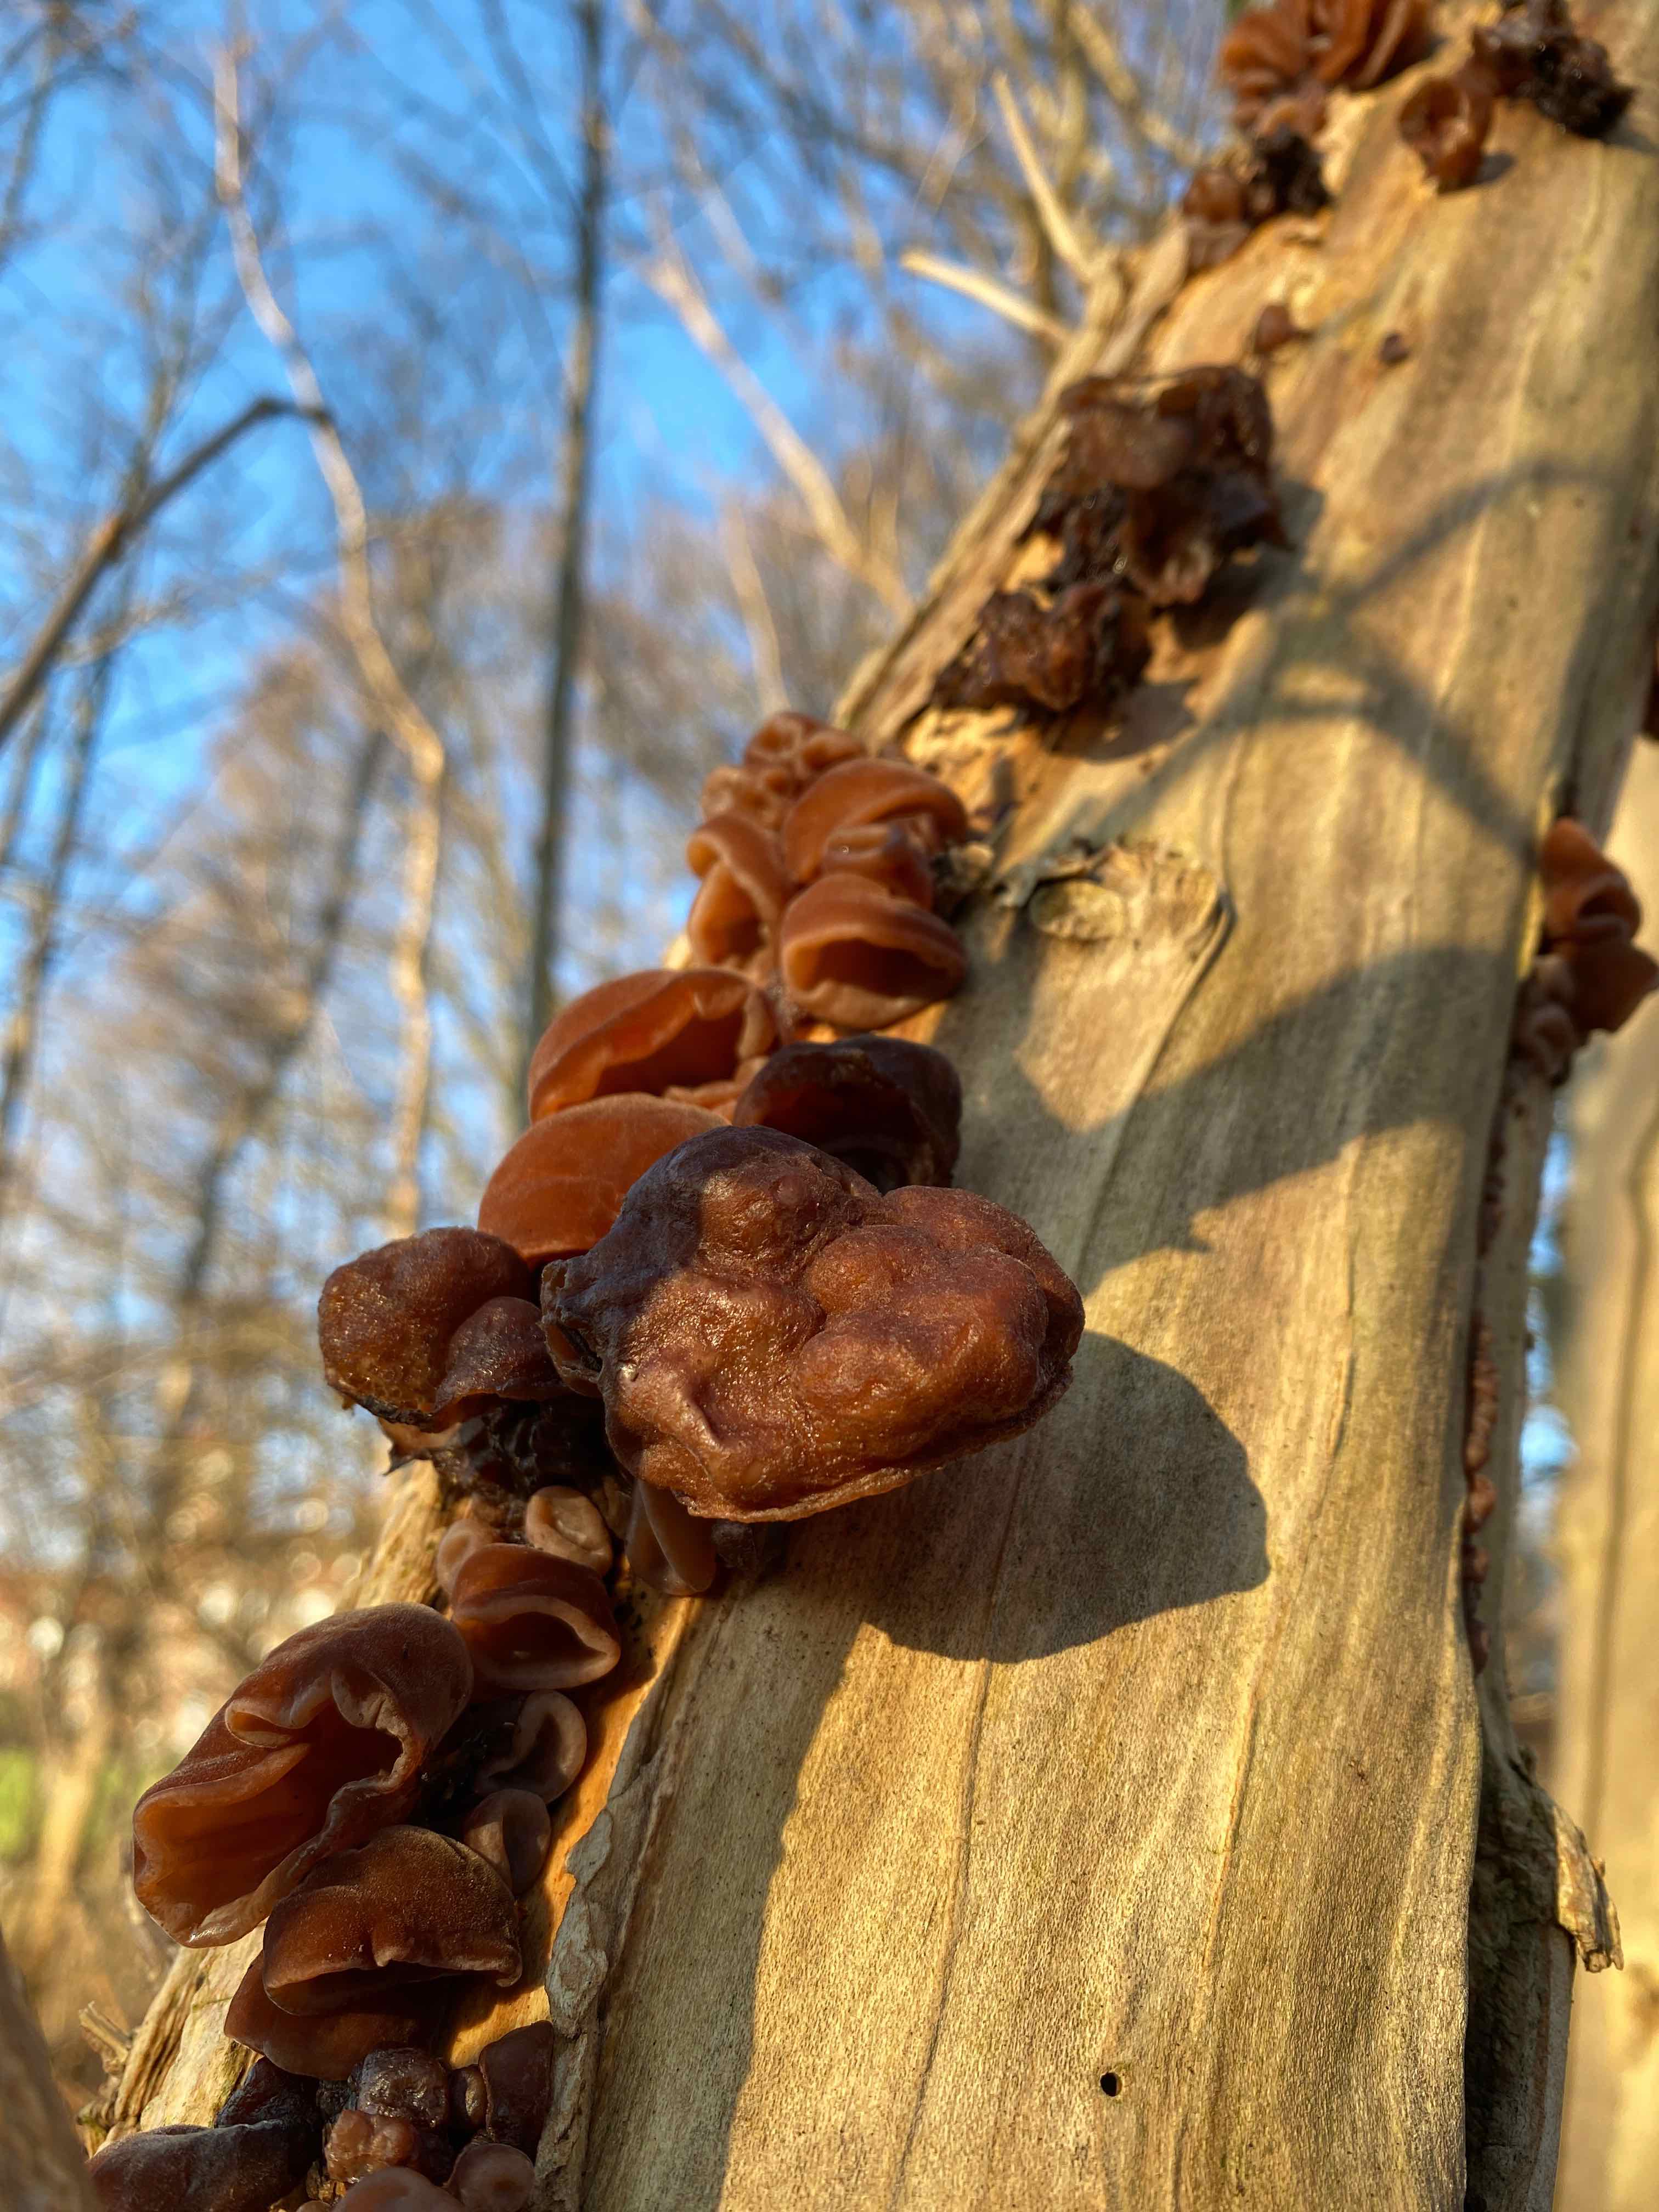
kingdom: Fungi
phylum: Basidiomycota
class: Agaricomycetes
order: Auriculariales
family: Auriculariaceae
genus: Auricularia
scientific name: Auricularia auricula-judae
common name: almindelig judasøre
